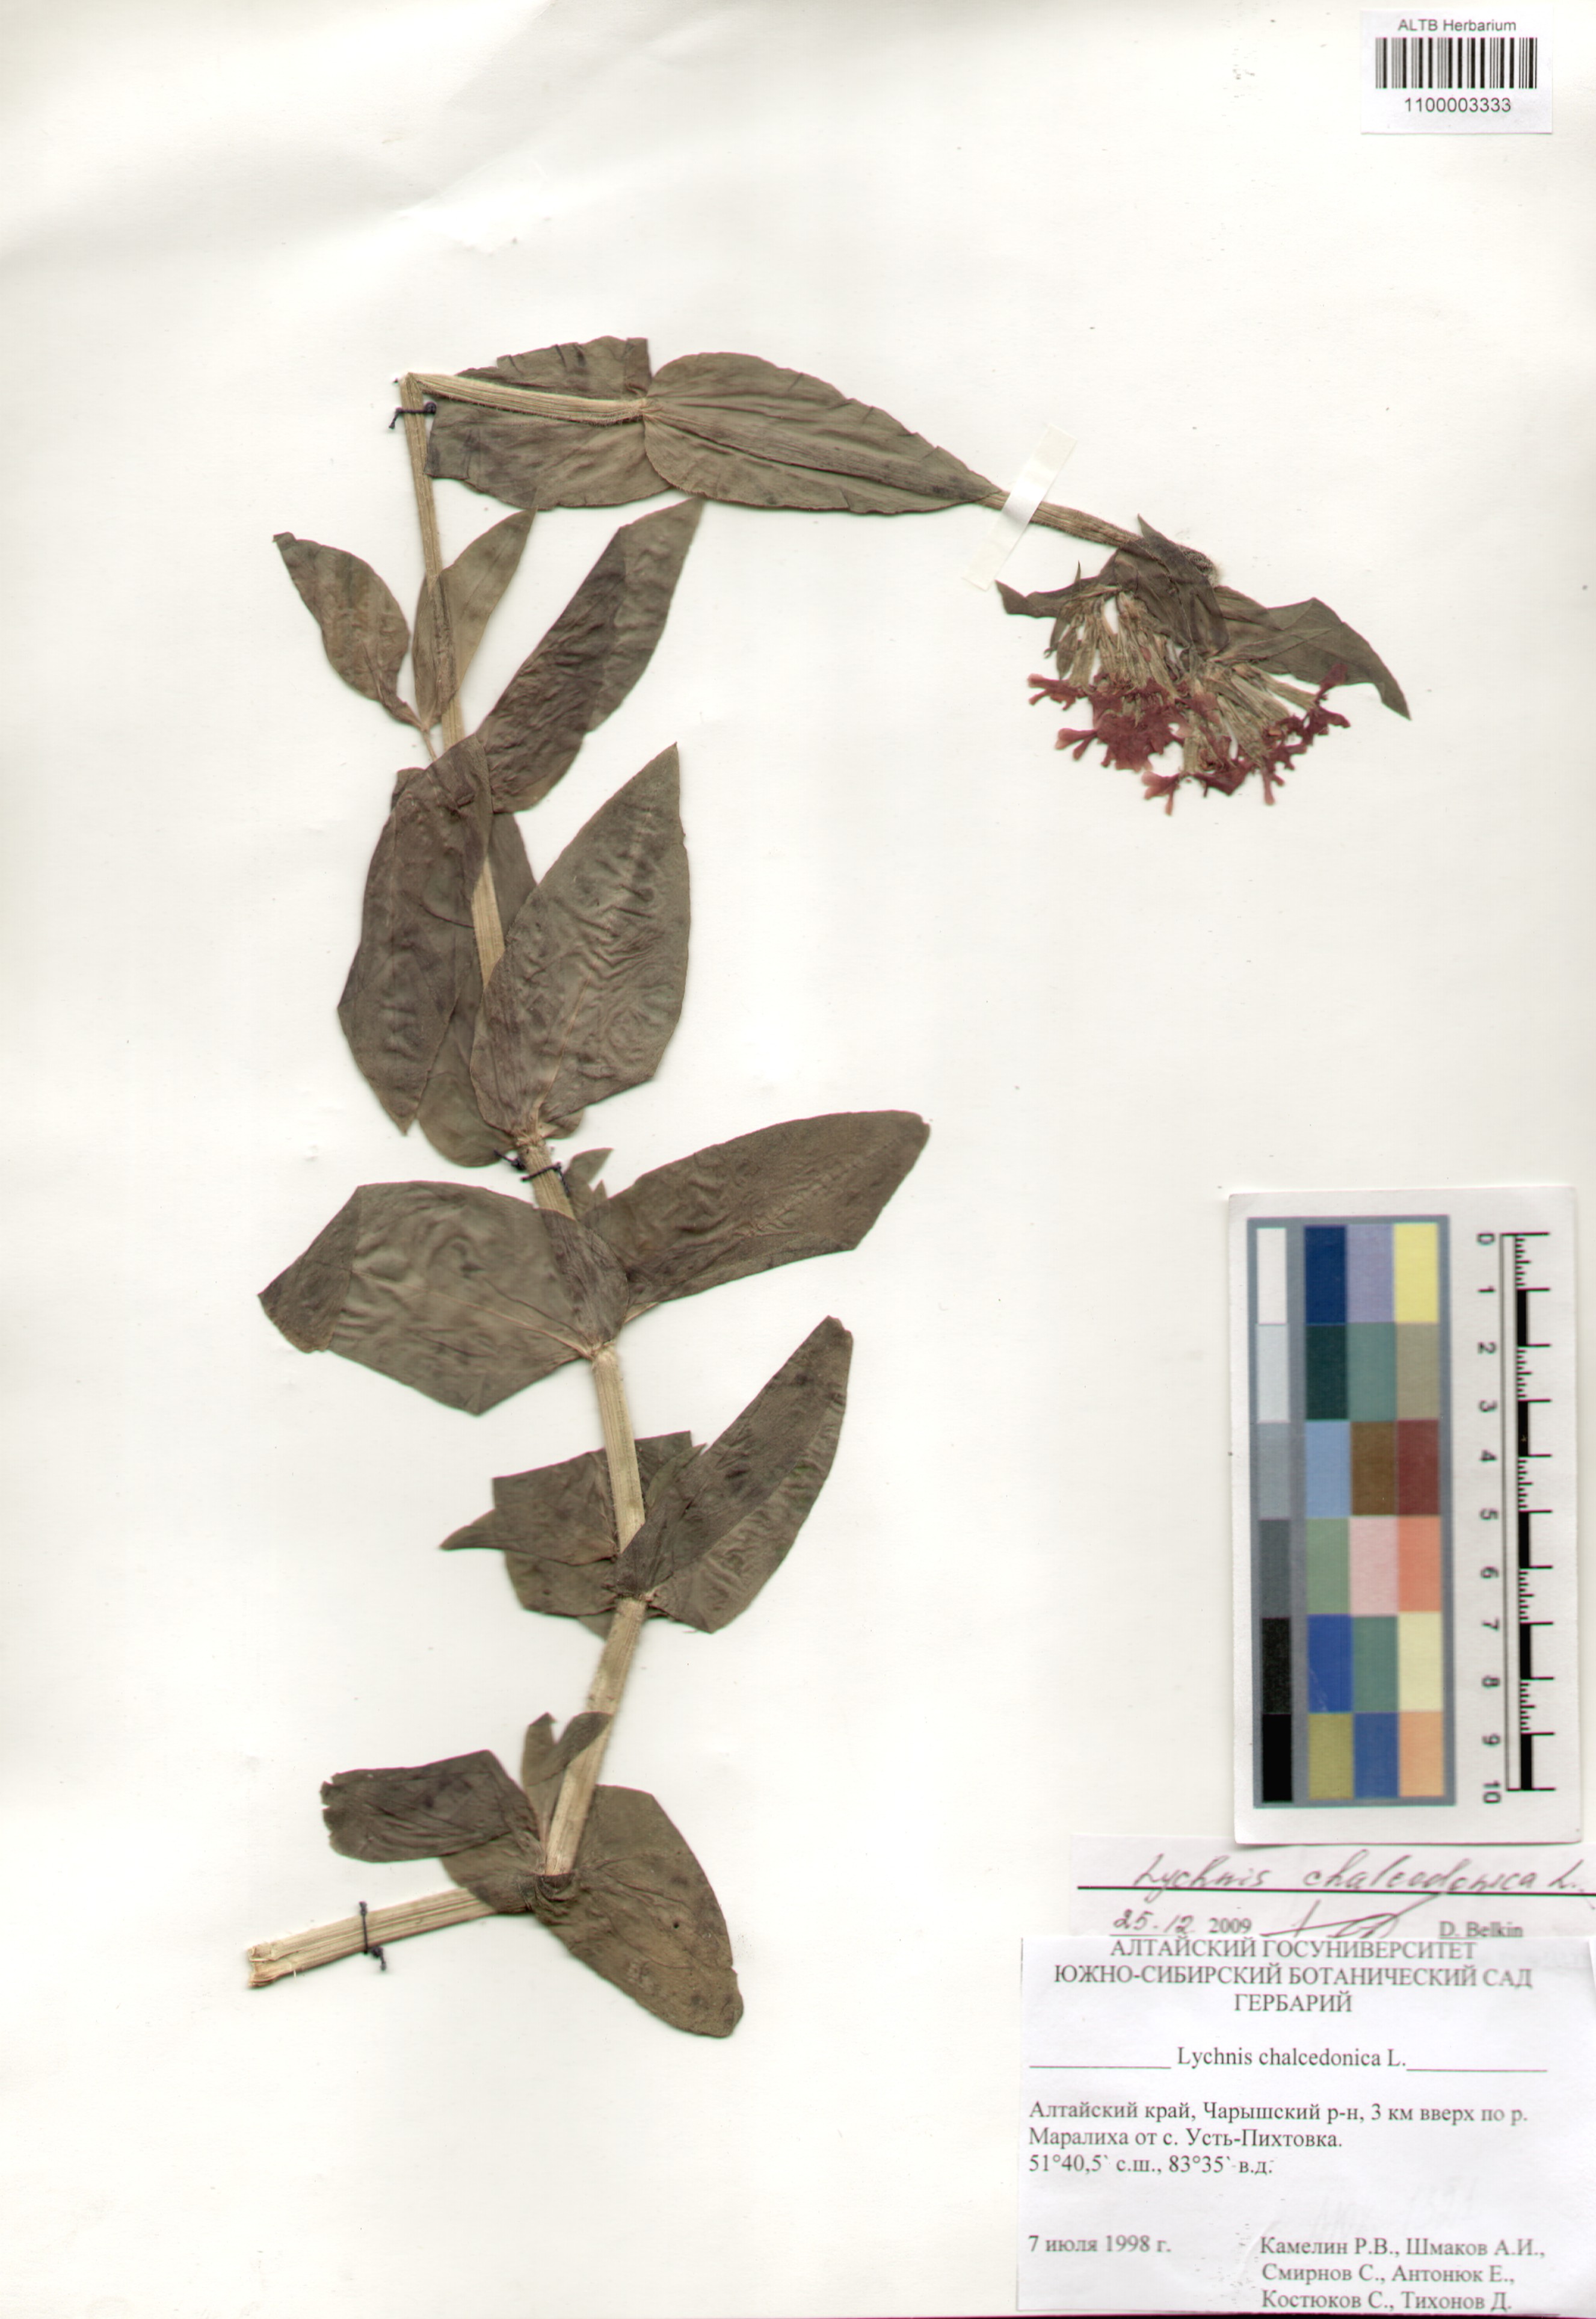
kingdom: Plantae
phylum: Tracheophyta
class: Magnoliopsida
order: Caryophyllales
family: Caryophyllaceae
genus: Silene
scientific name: Silene chalcedonica
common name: Maltese-cross
